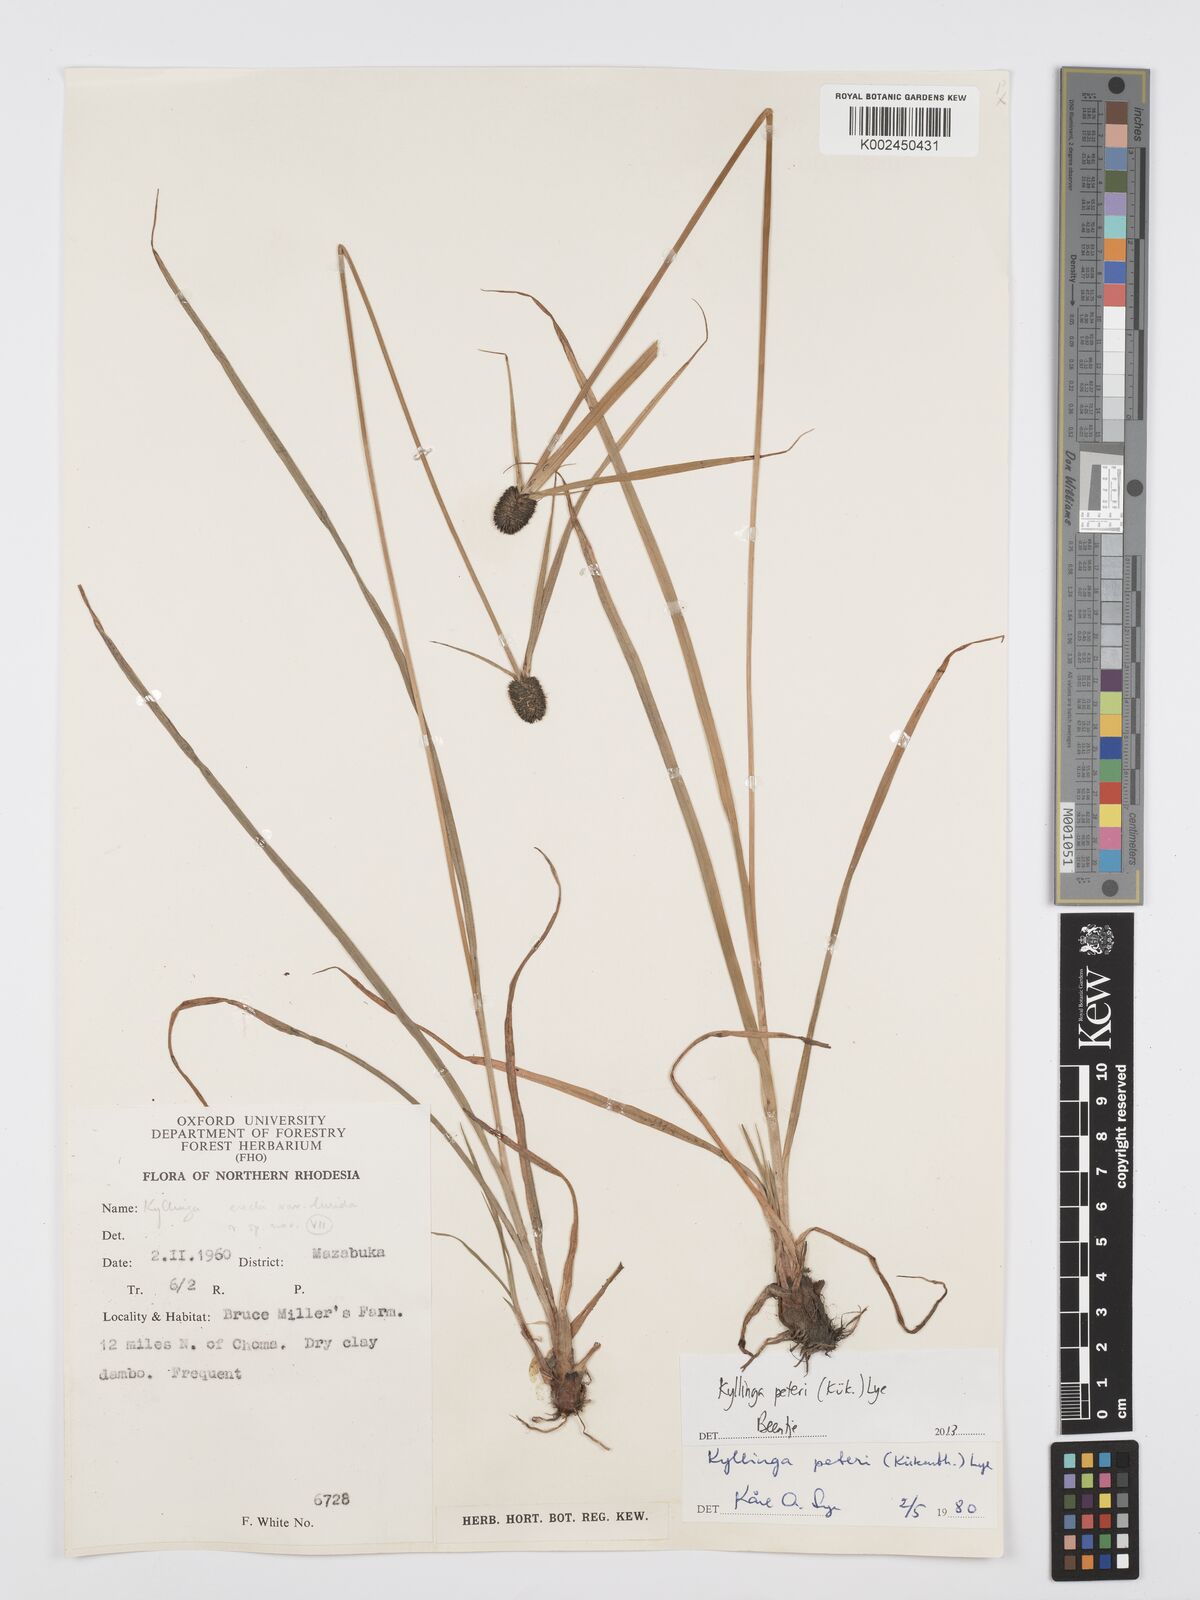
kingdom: Plantae
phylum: Tracheophyta
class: Liliopsida
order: Poales
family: Cyperaceae
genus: Cyperus
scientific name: Cyperus peteri
